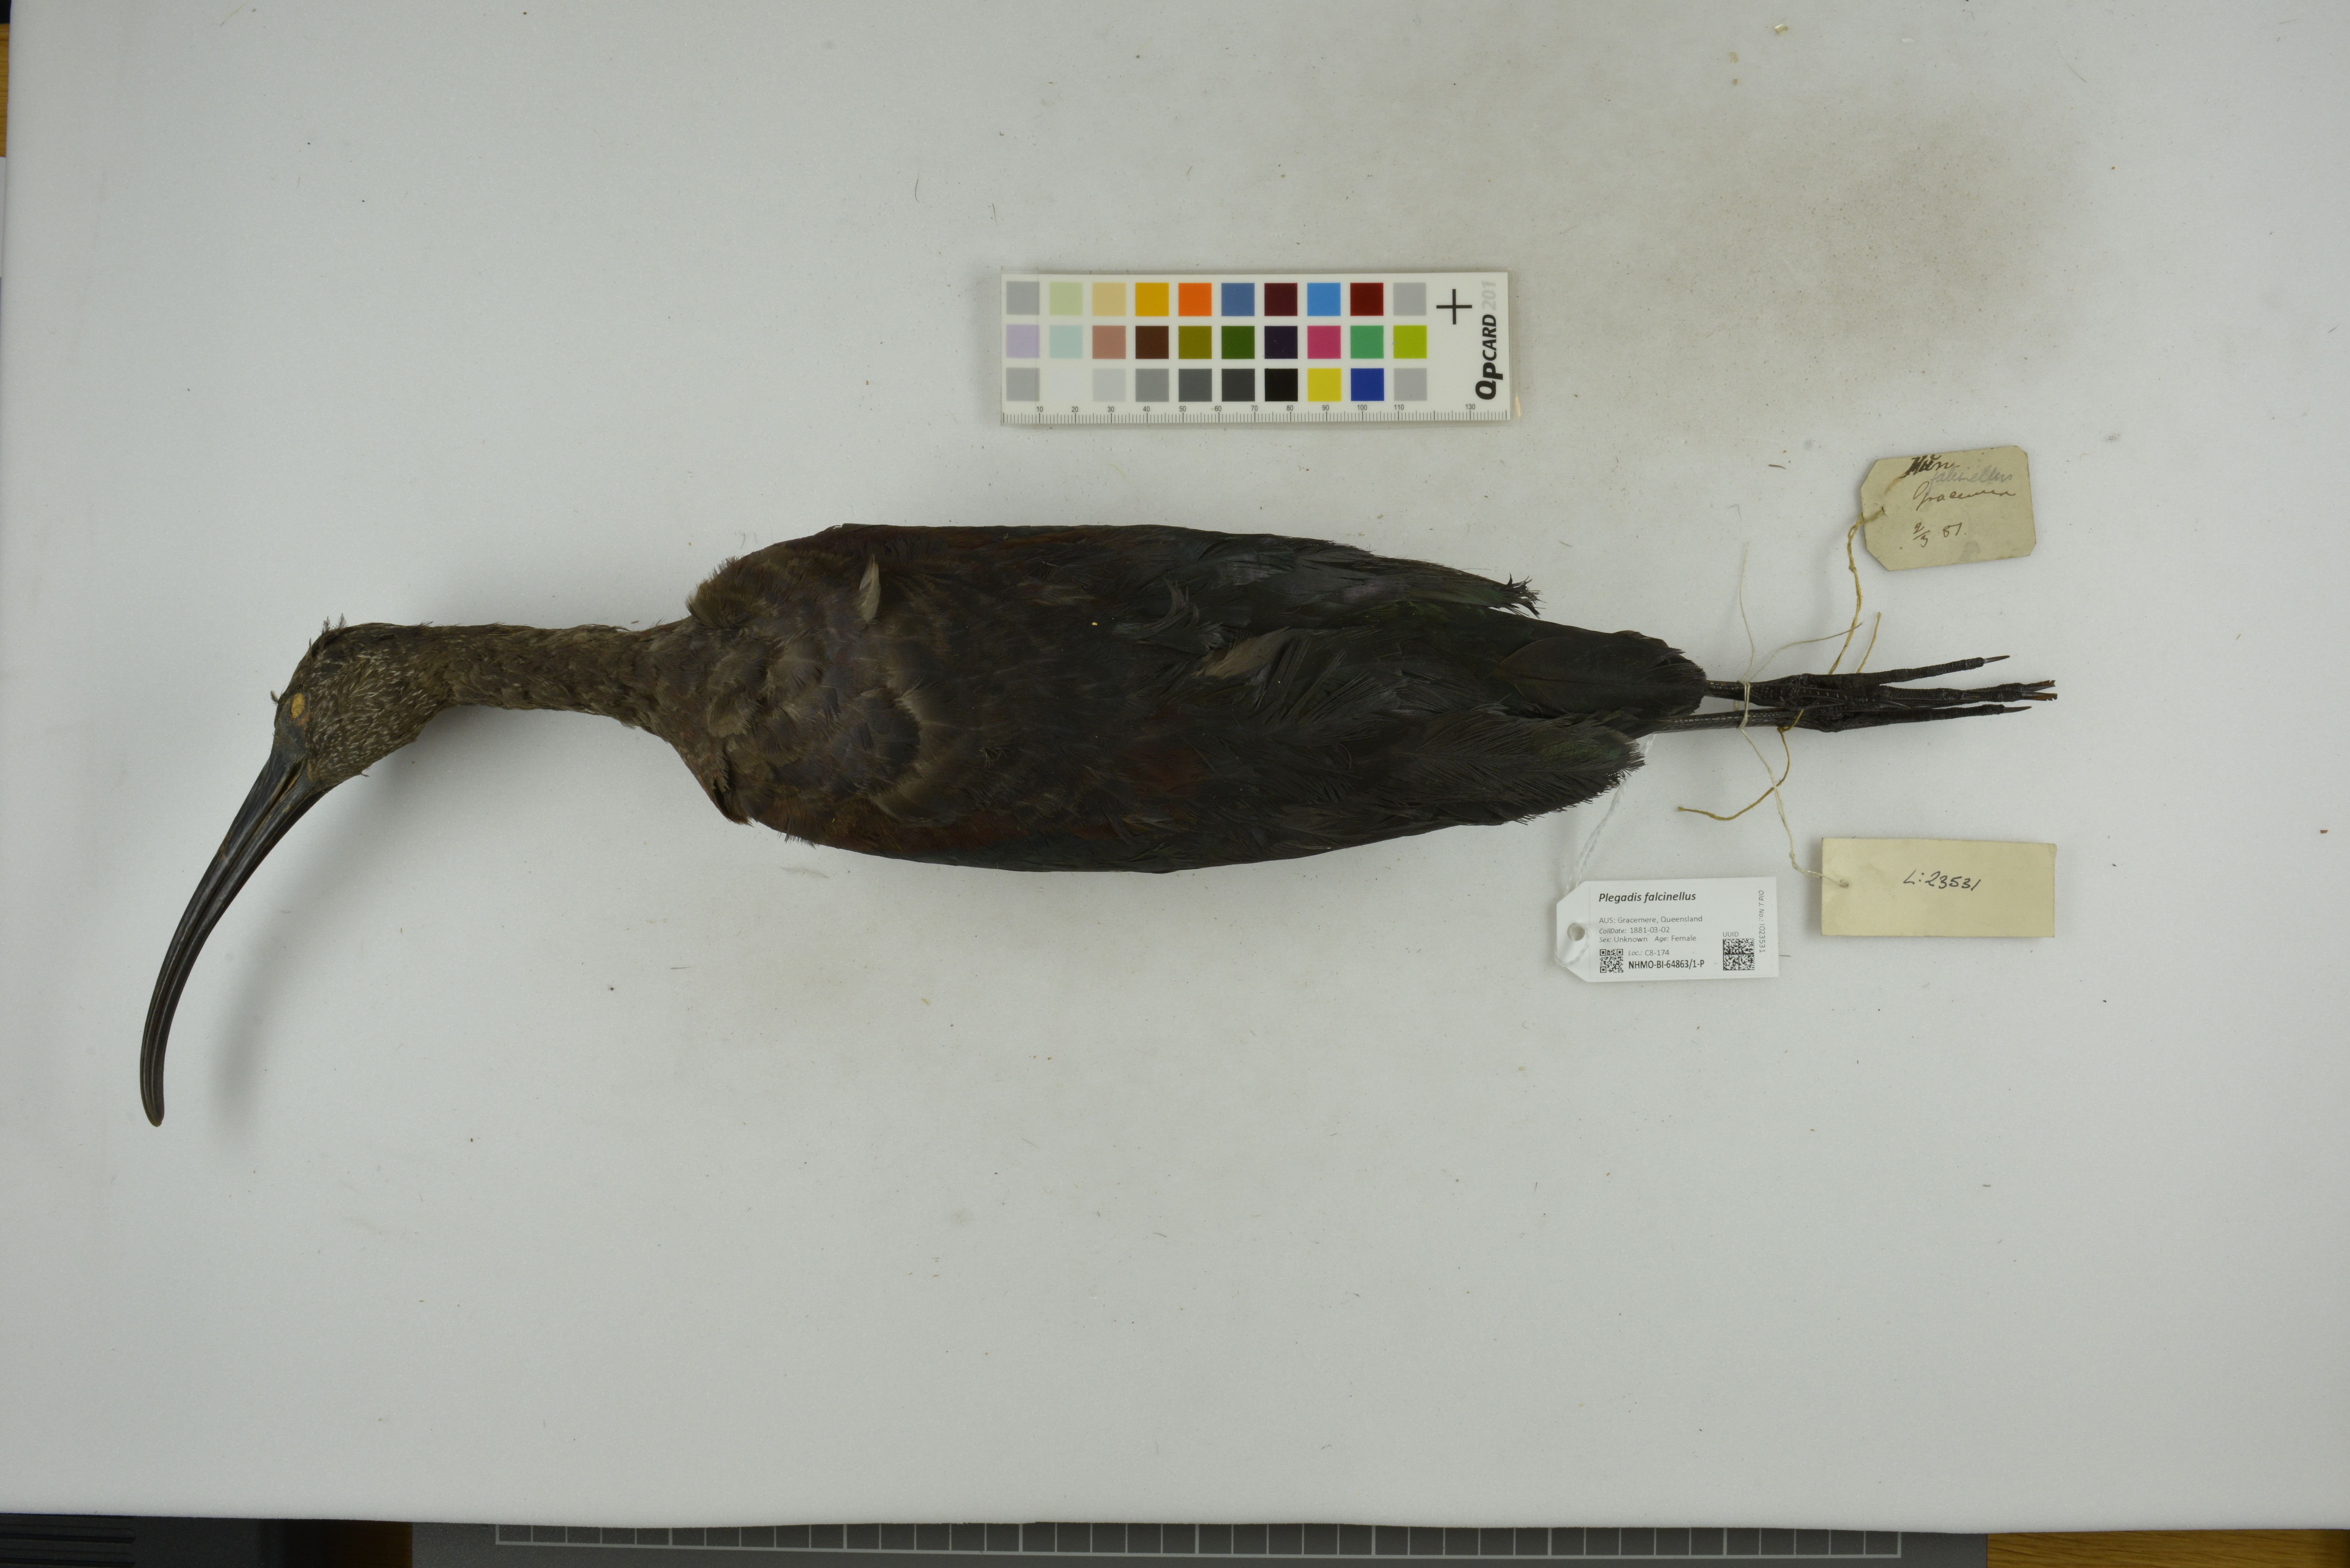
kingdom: Animalia
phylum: Chordata
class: Aves
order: Pelecaniformes
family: Threskiornithidae
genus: Plegadis
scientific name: Plegadis falcinellus
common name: Glossy ibis
